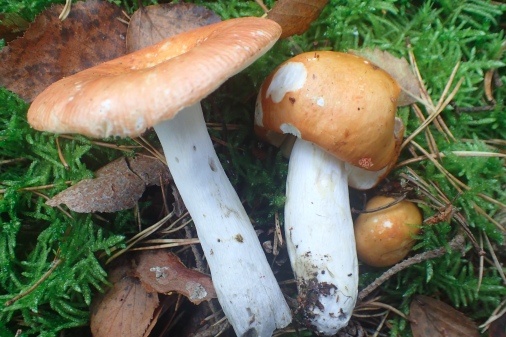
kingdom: Fungi
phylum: Basidiomycota
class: Agaricomycetes
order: Russulales
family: Russulaceae
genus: Russula
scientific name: Russula decolorans
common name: afblegende skørhat
